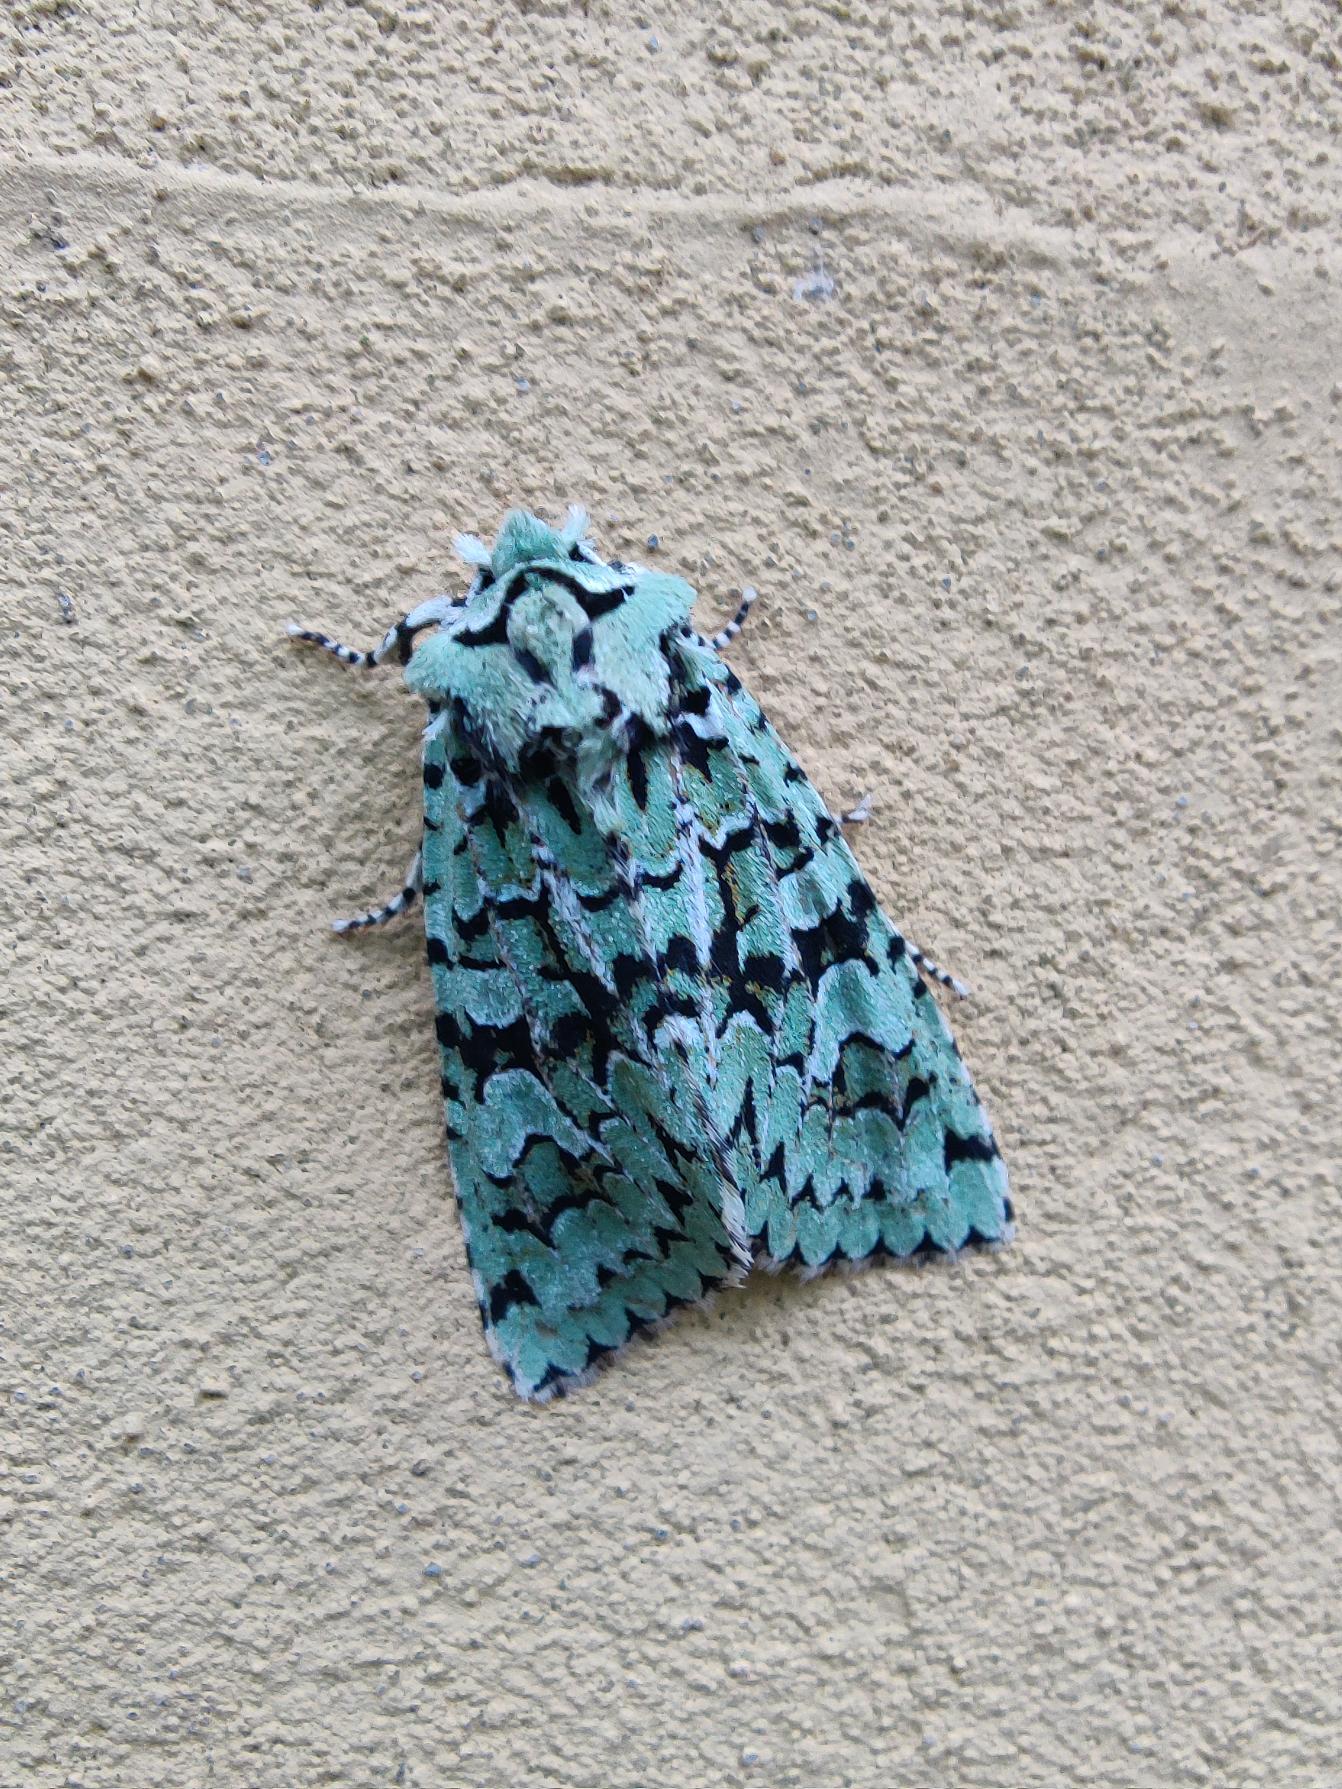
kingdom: Animalia
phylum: Arthropoda
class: Insecta
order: Lepidoptera
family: Noctuidae
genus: Griposia
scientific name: Griposia aprilina
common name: Aprilugle
